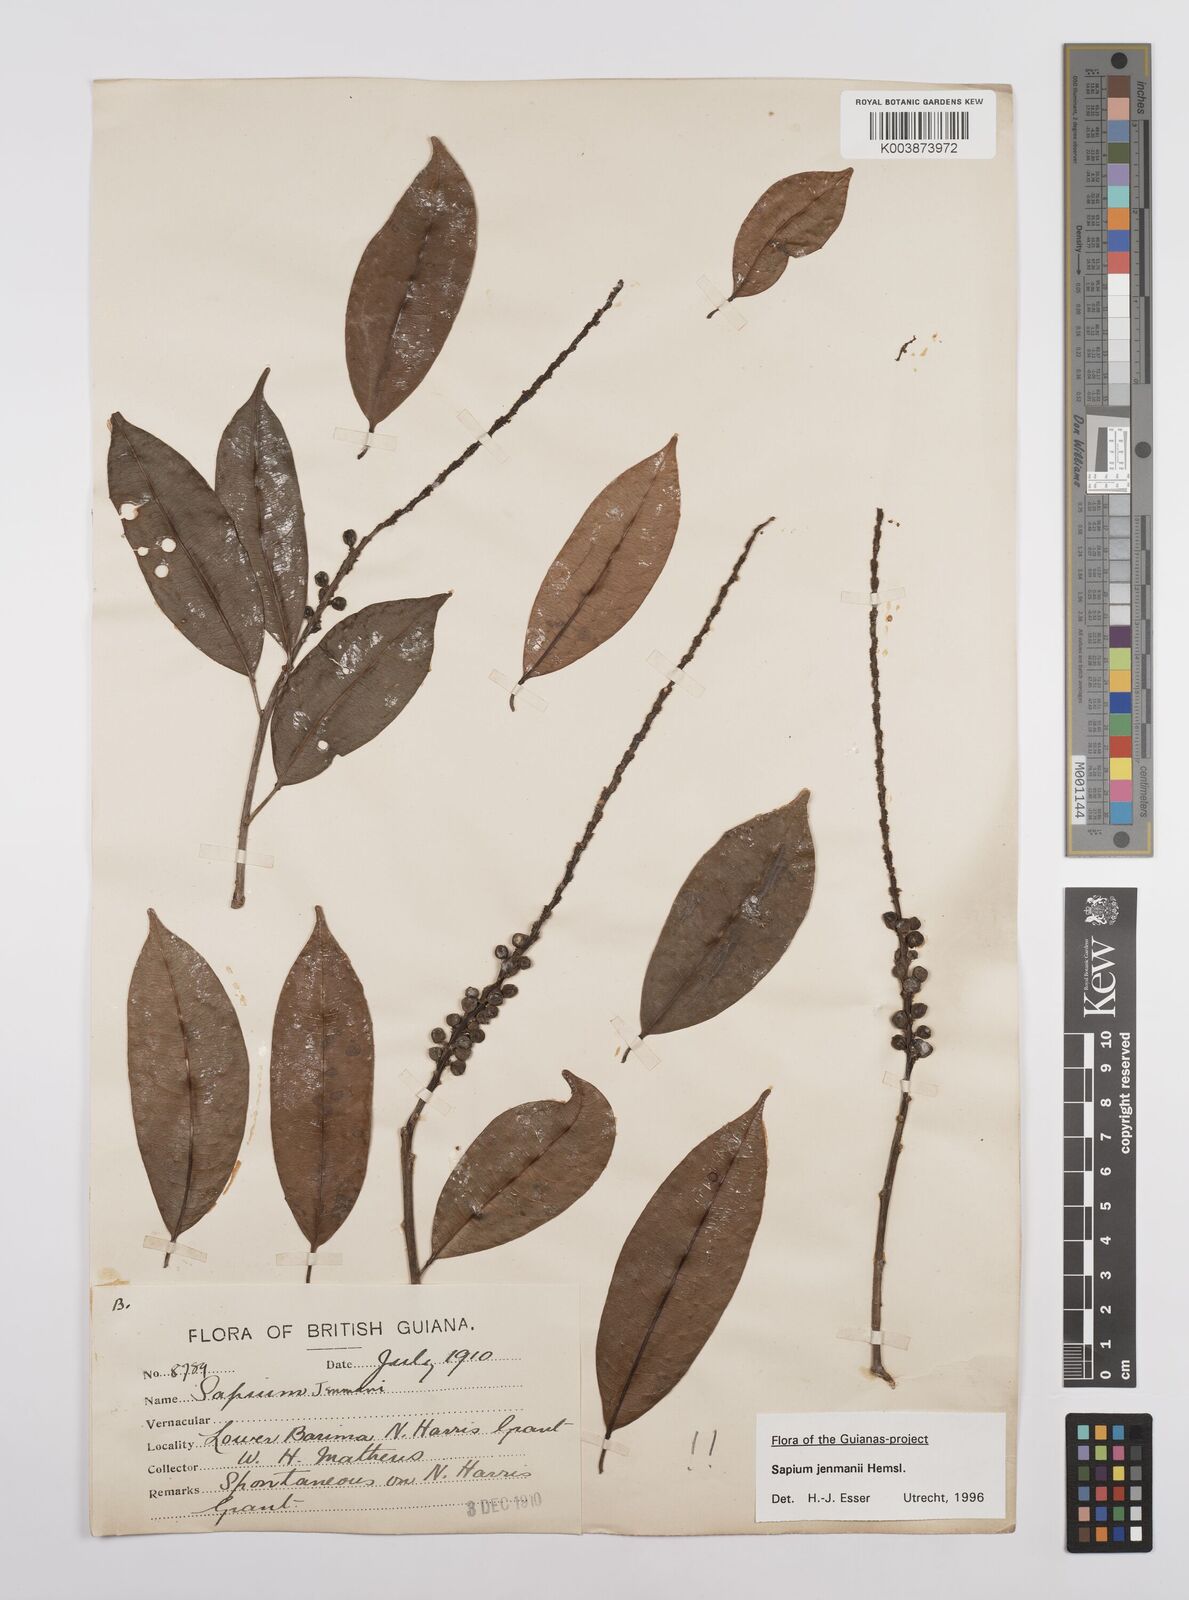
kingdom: Plantae
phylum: Tracheophyta
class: Magnoliopsida
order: Malpighiales
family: Euphorbiaceae
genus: Sapium
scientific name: Sapium jenmannii
